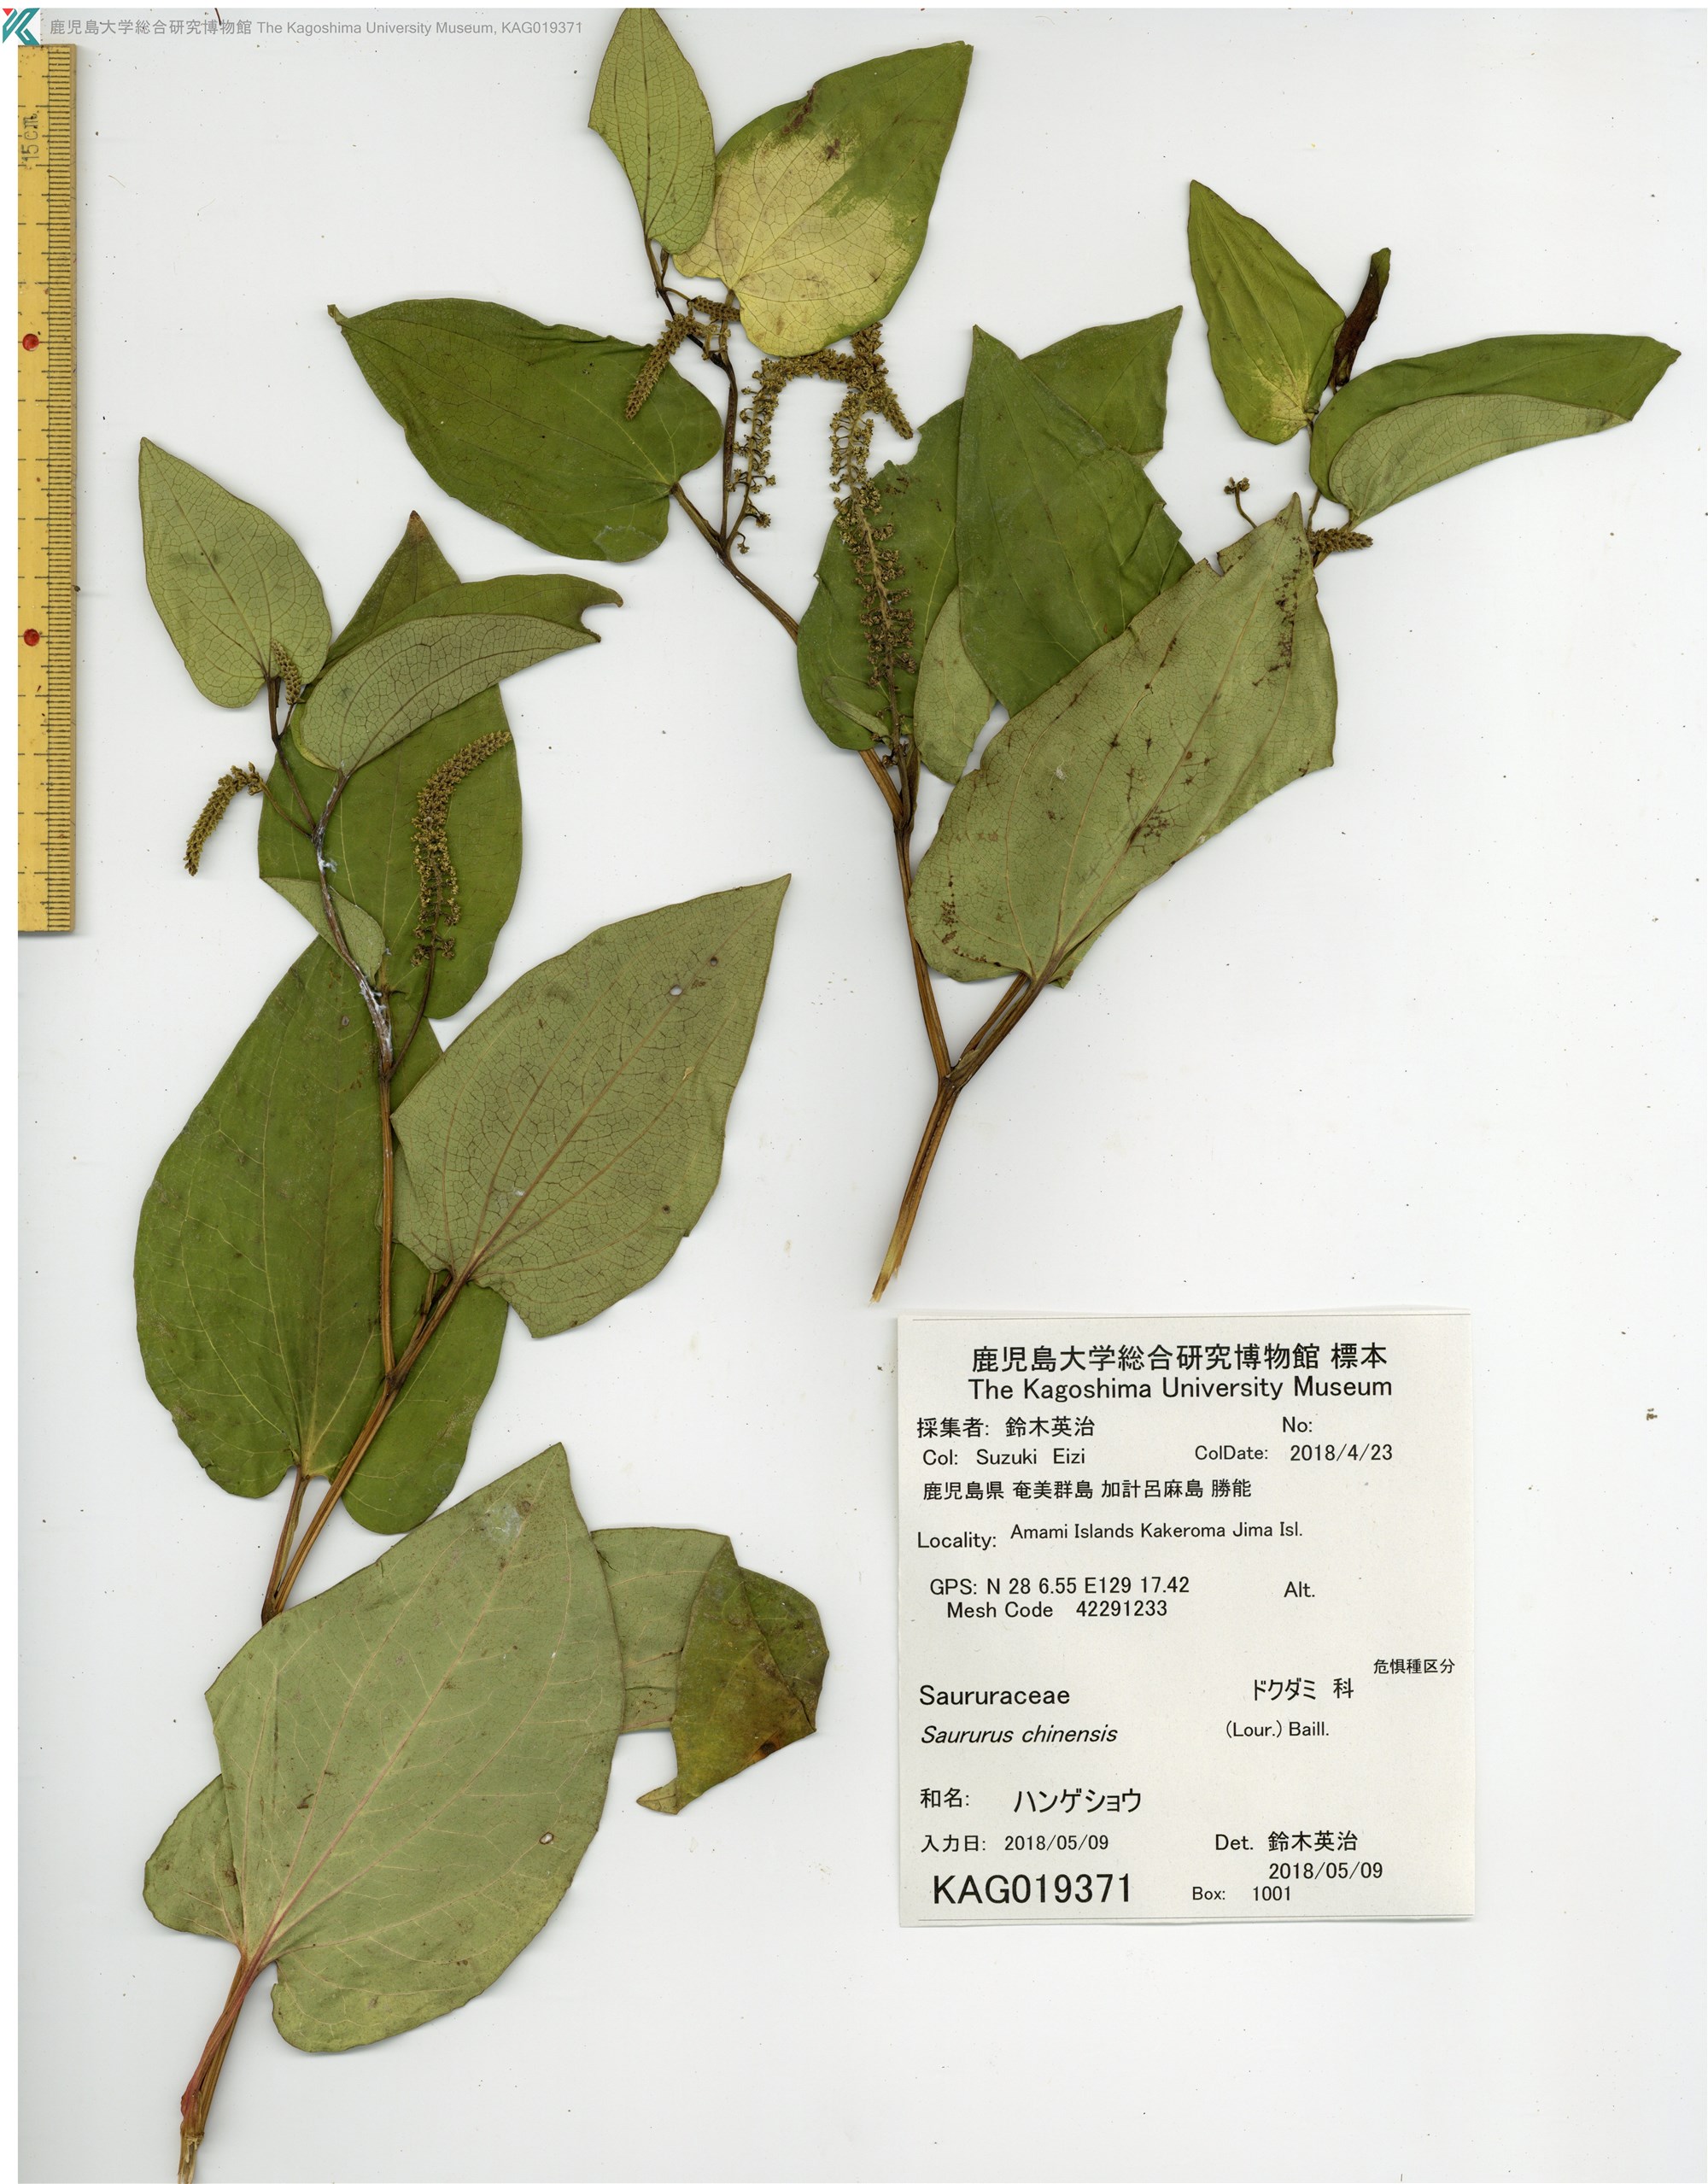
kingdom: Plantae
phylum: Tracheophyta
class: Magnoliopsida
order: Piperales
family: Saururaceae
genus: Saururus
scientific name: Saururus chinensis
